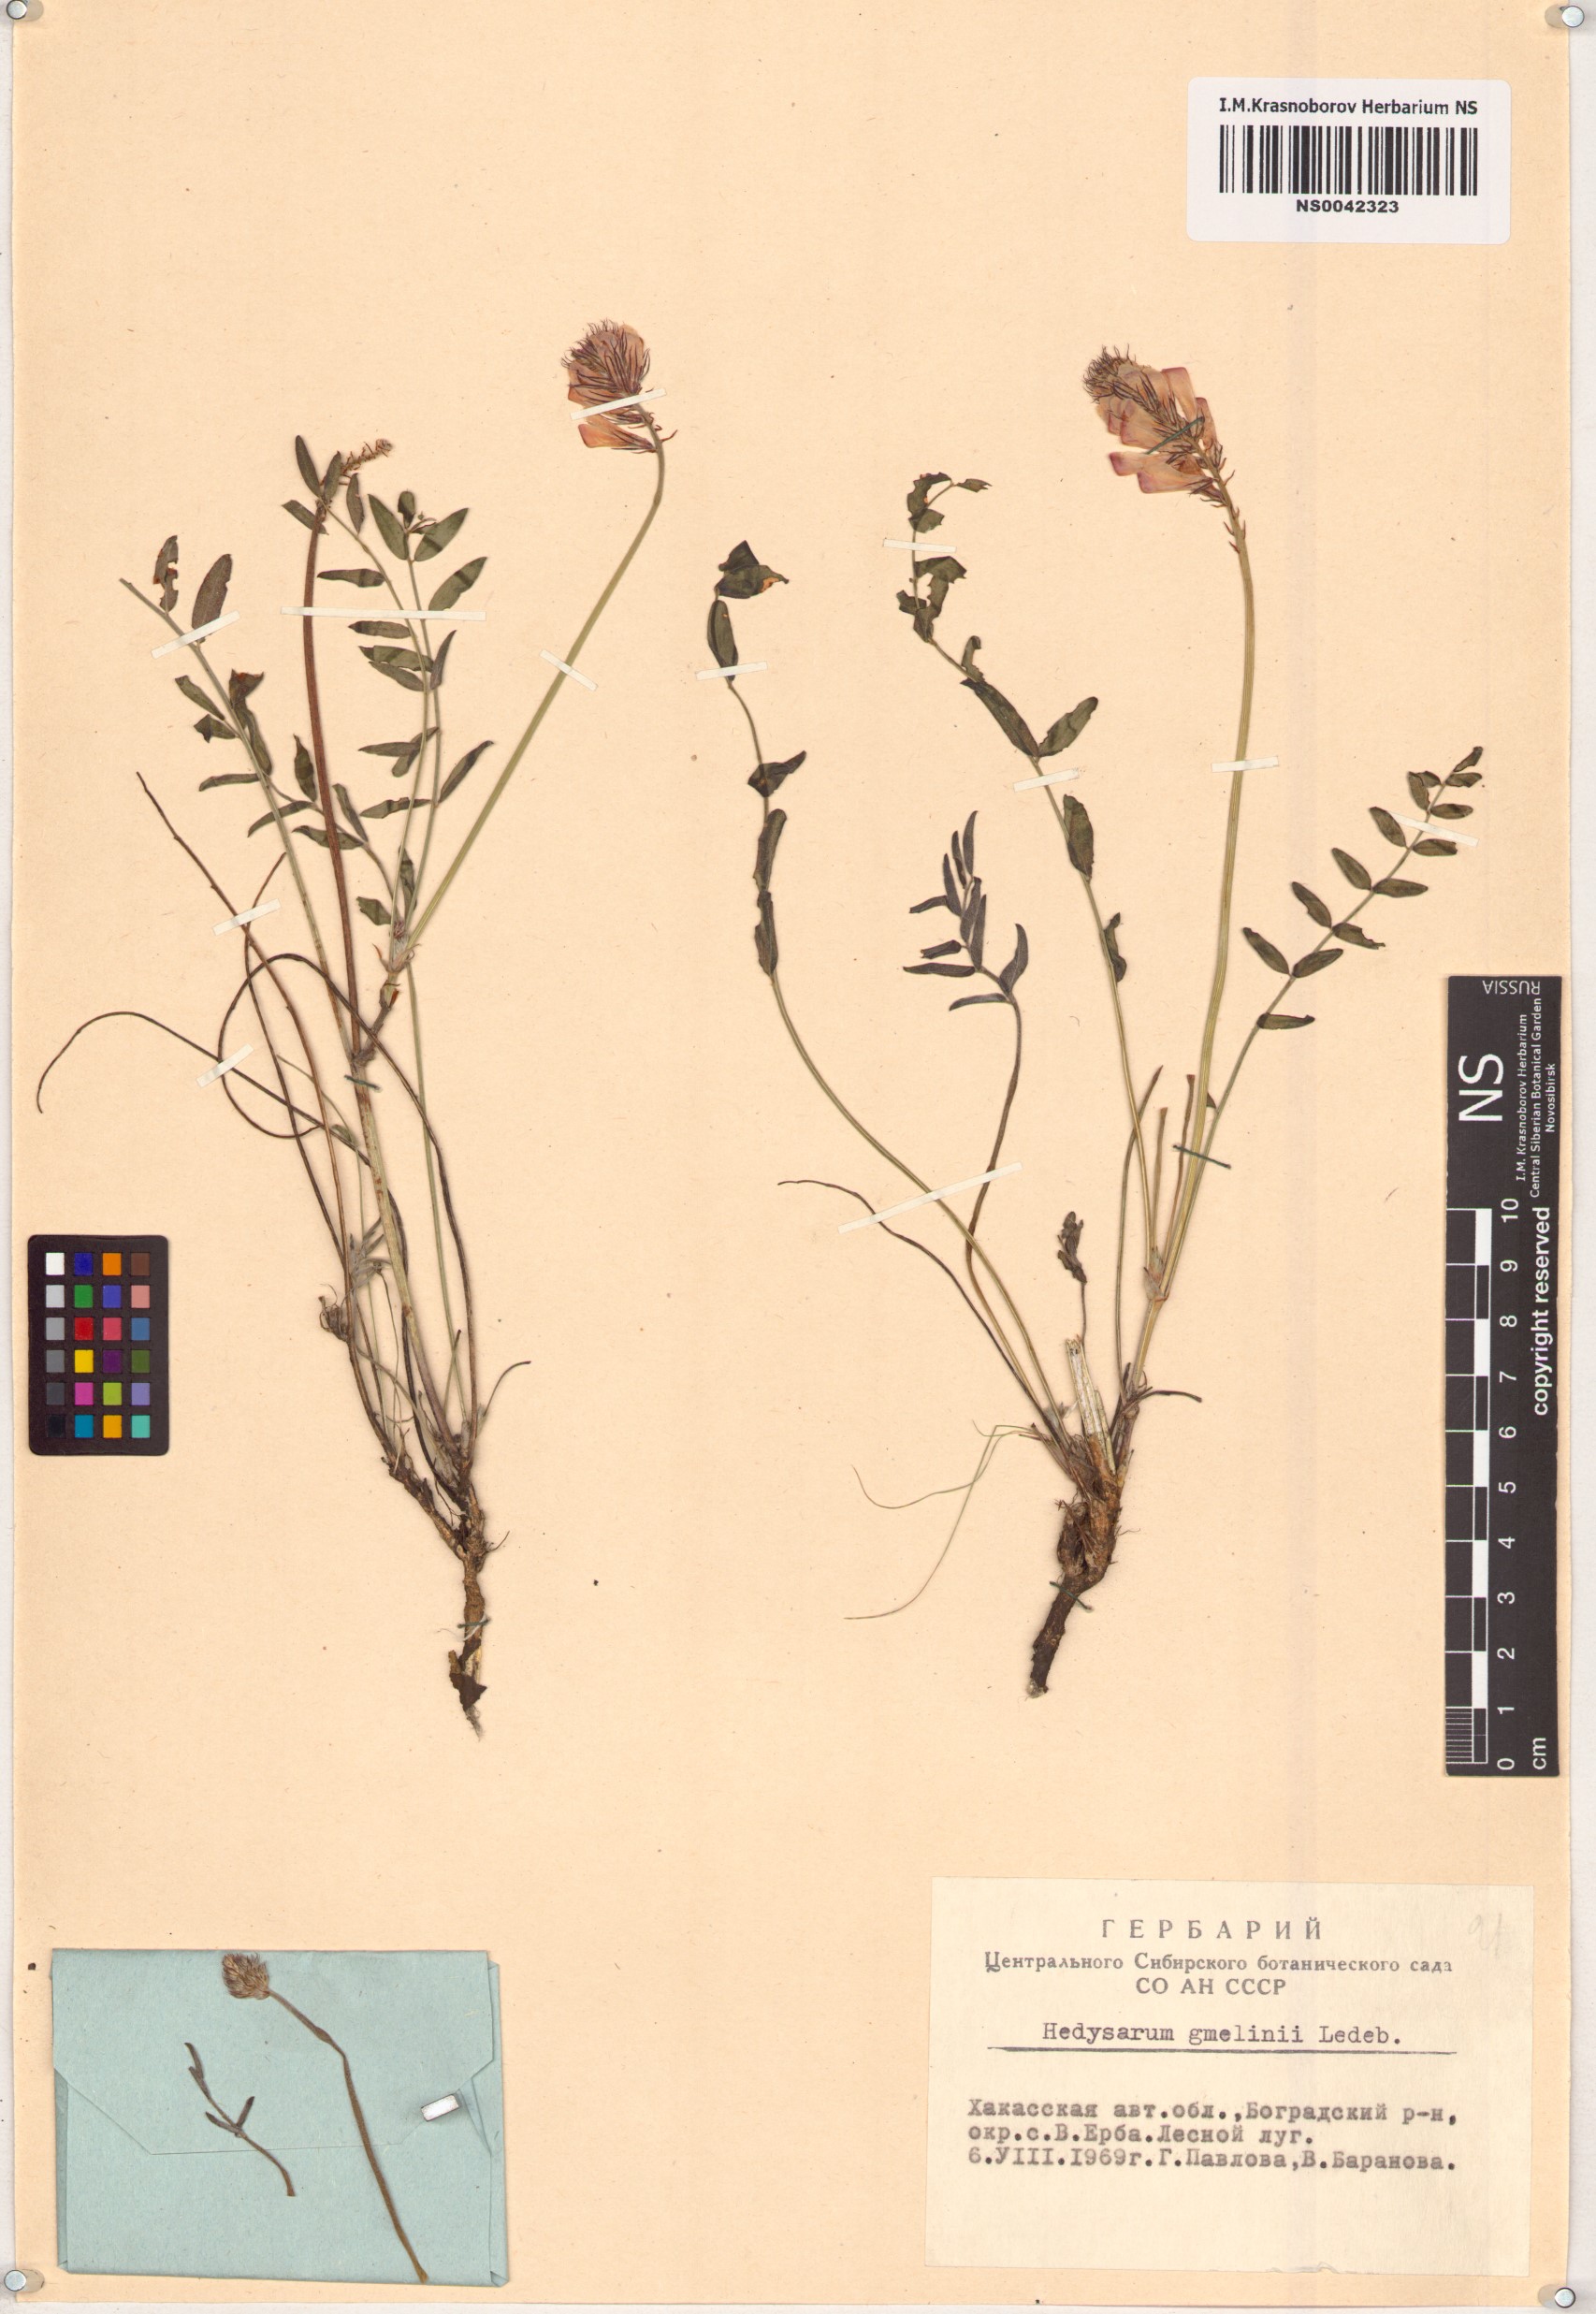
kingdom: Plantae
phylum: Tracheophyta
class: Magnoliopsida
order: Fabales
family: Fabaceae
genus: Hedysarum
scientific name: Hedysarum gmelinii
